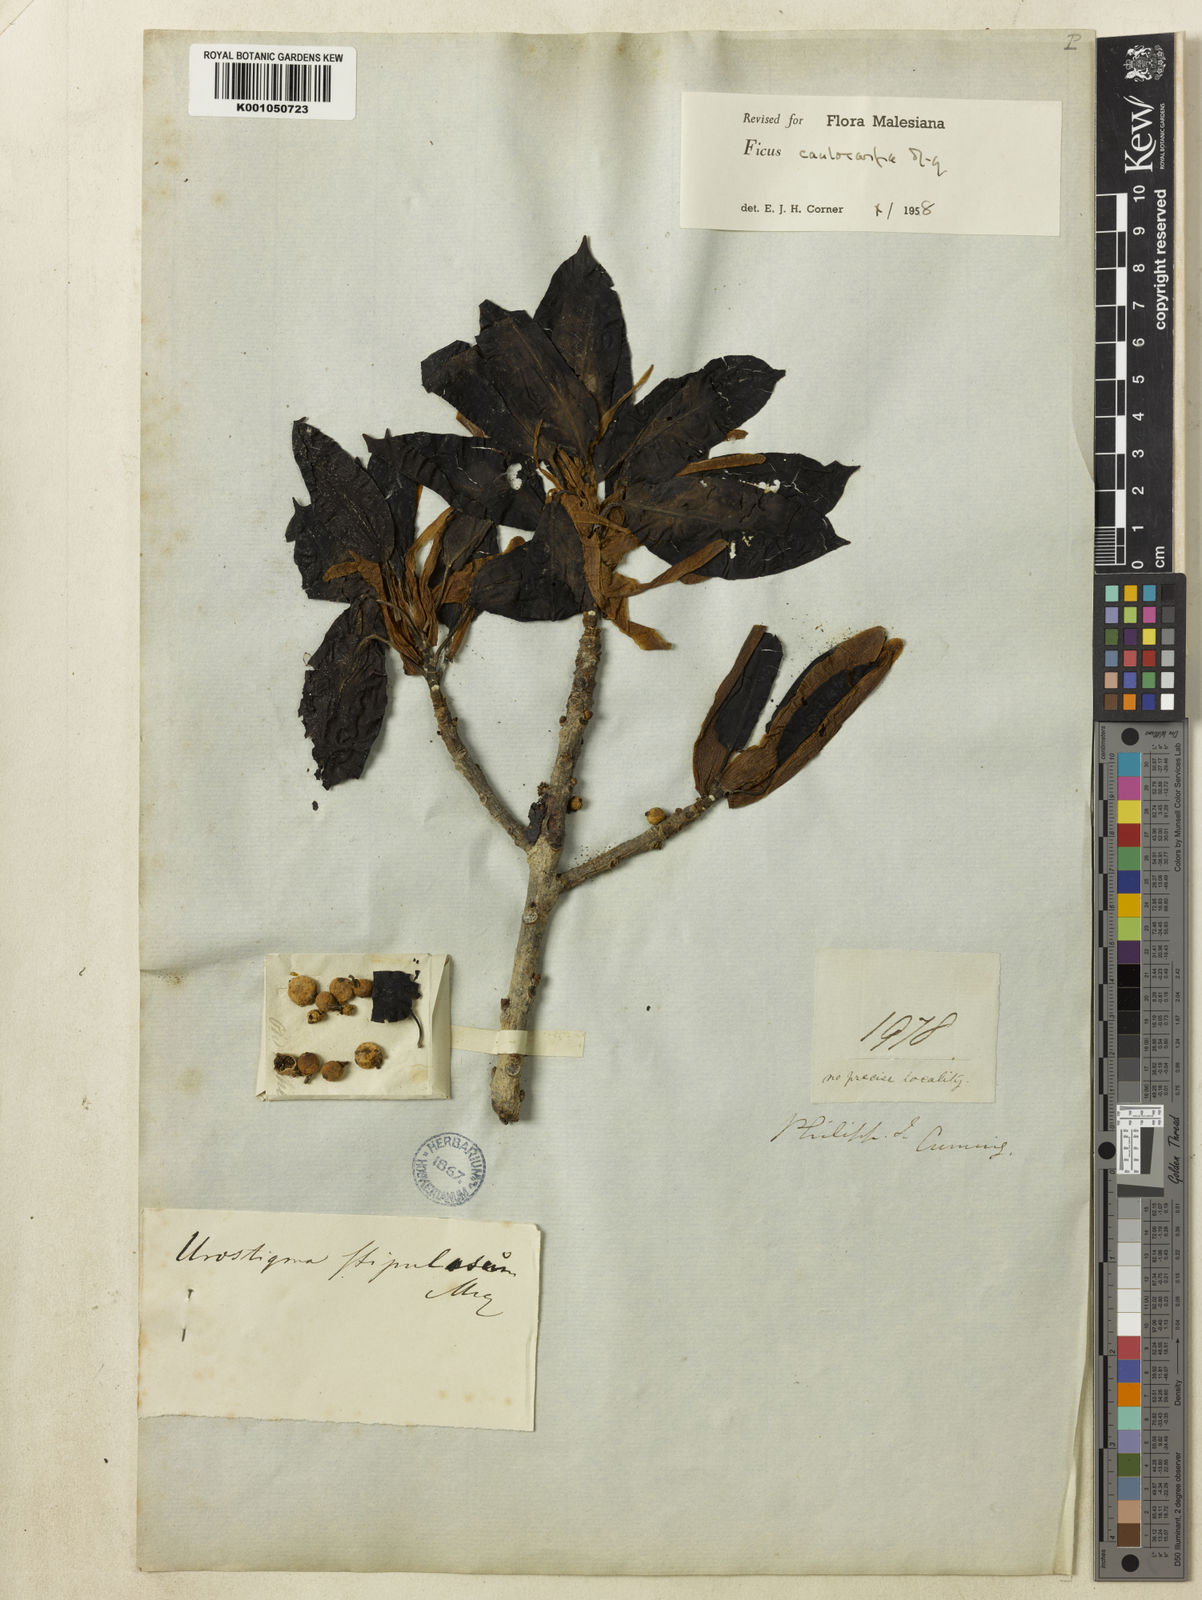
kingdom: Plantae
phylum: Tracheophyta
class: Magnoliopsida
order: Rosales
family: Moraceae
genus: Ficus
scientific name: Ficus caulocarpa
